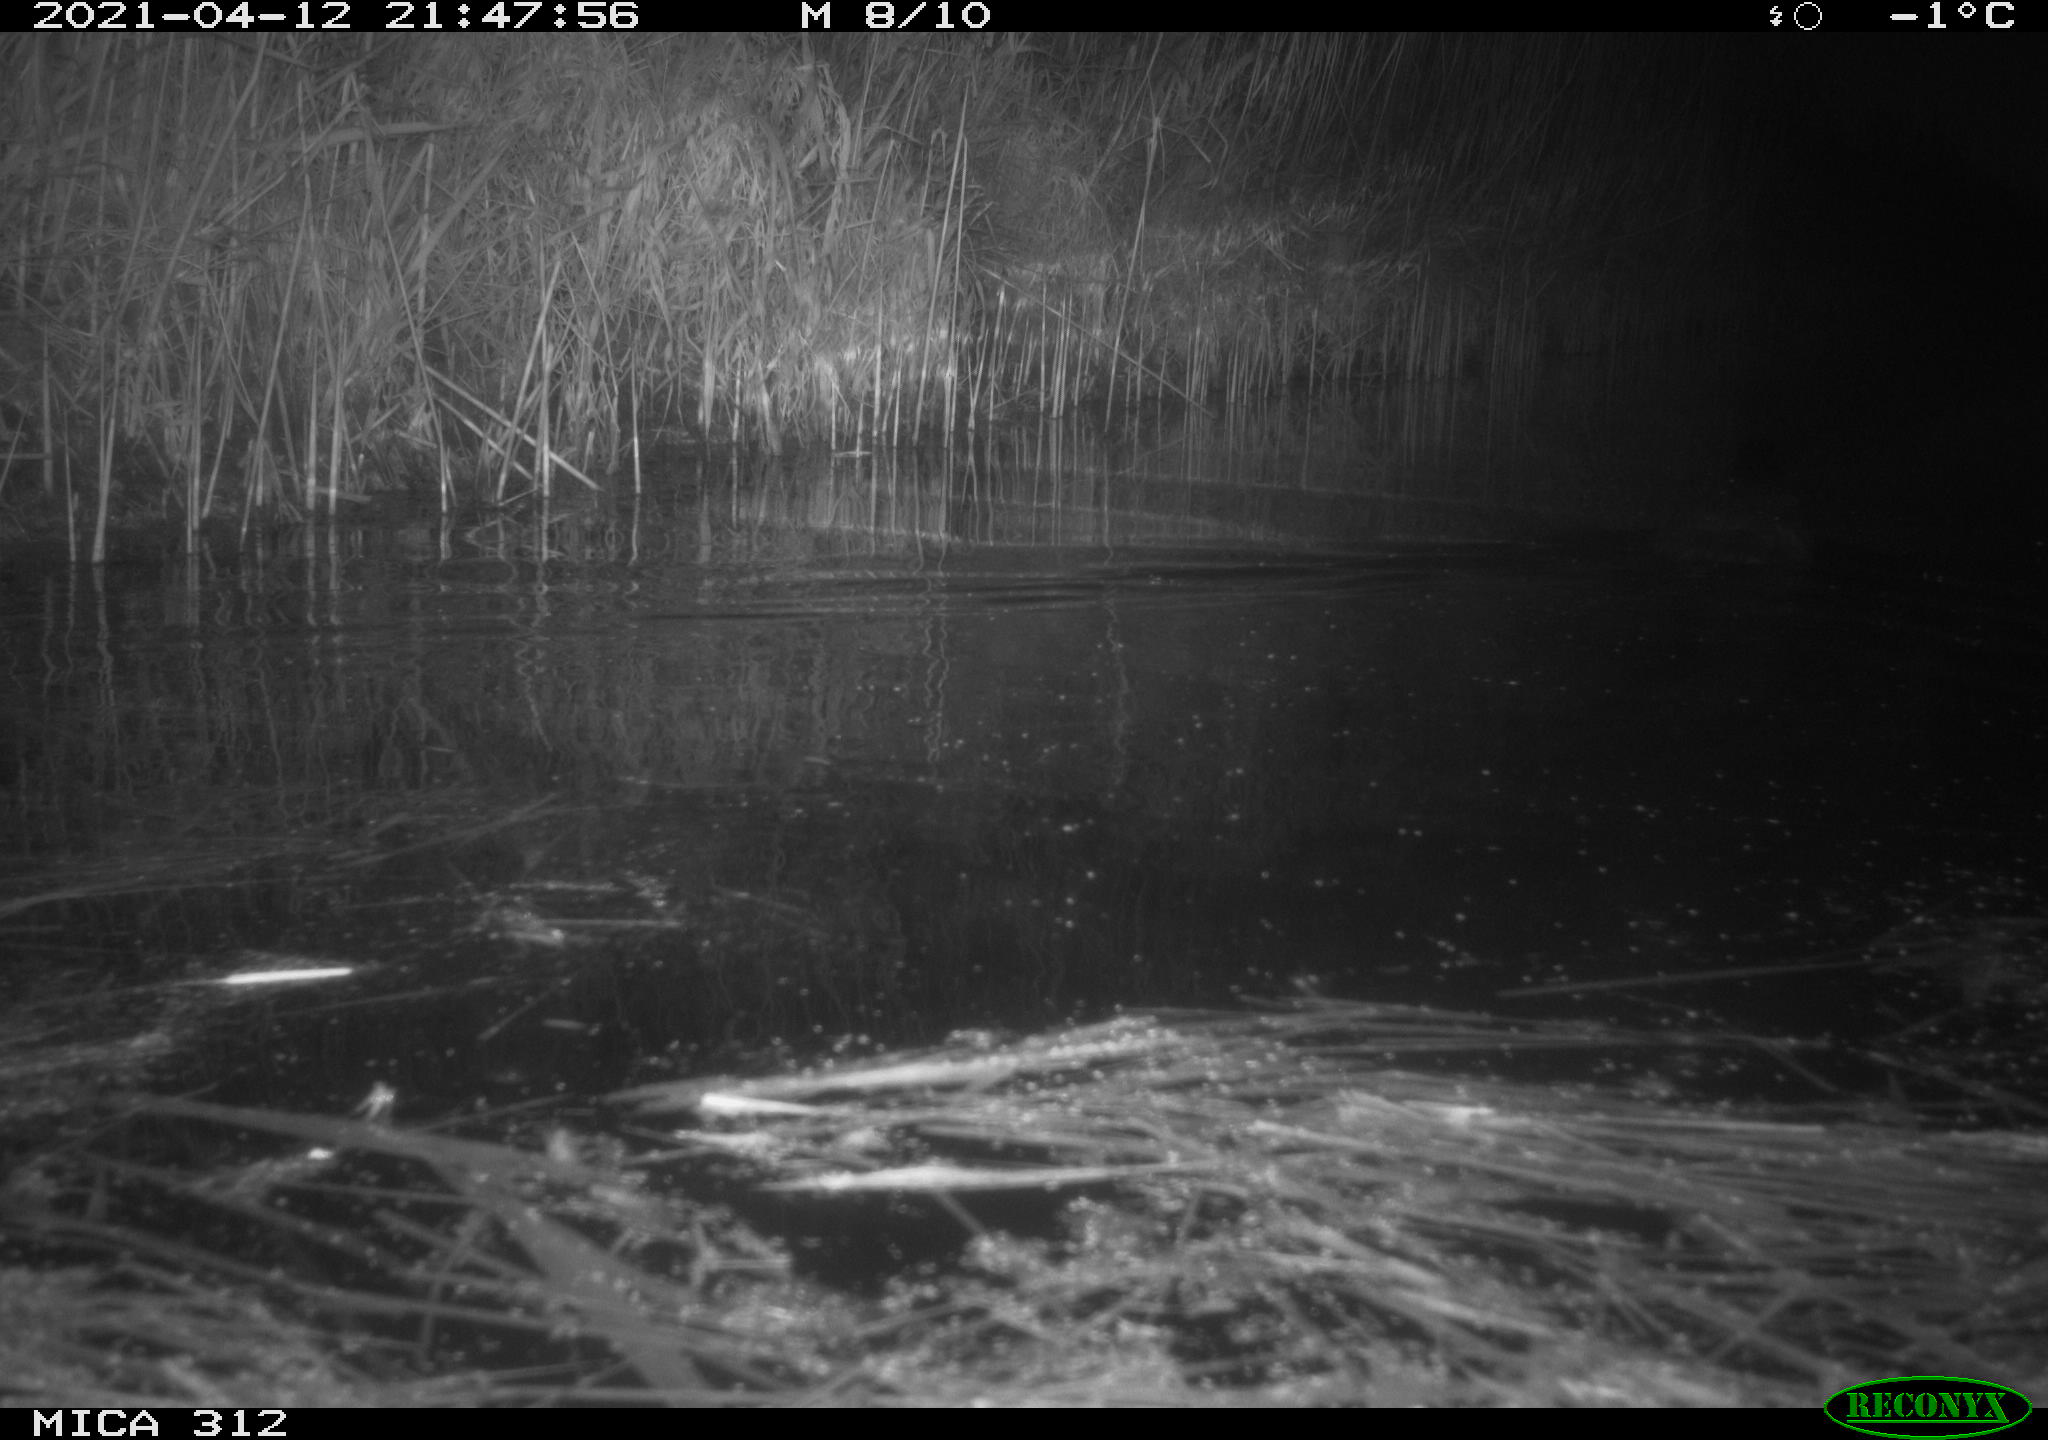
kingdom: Animalia
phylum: Chordata
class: Aves
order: Gruiformes
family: Rallidae
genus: Fulica
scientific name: Fulica atra
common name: Eurasian coot
